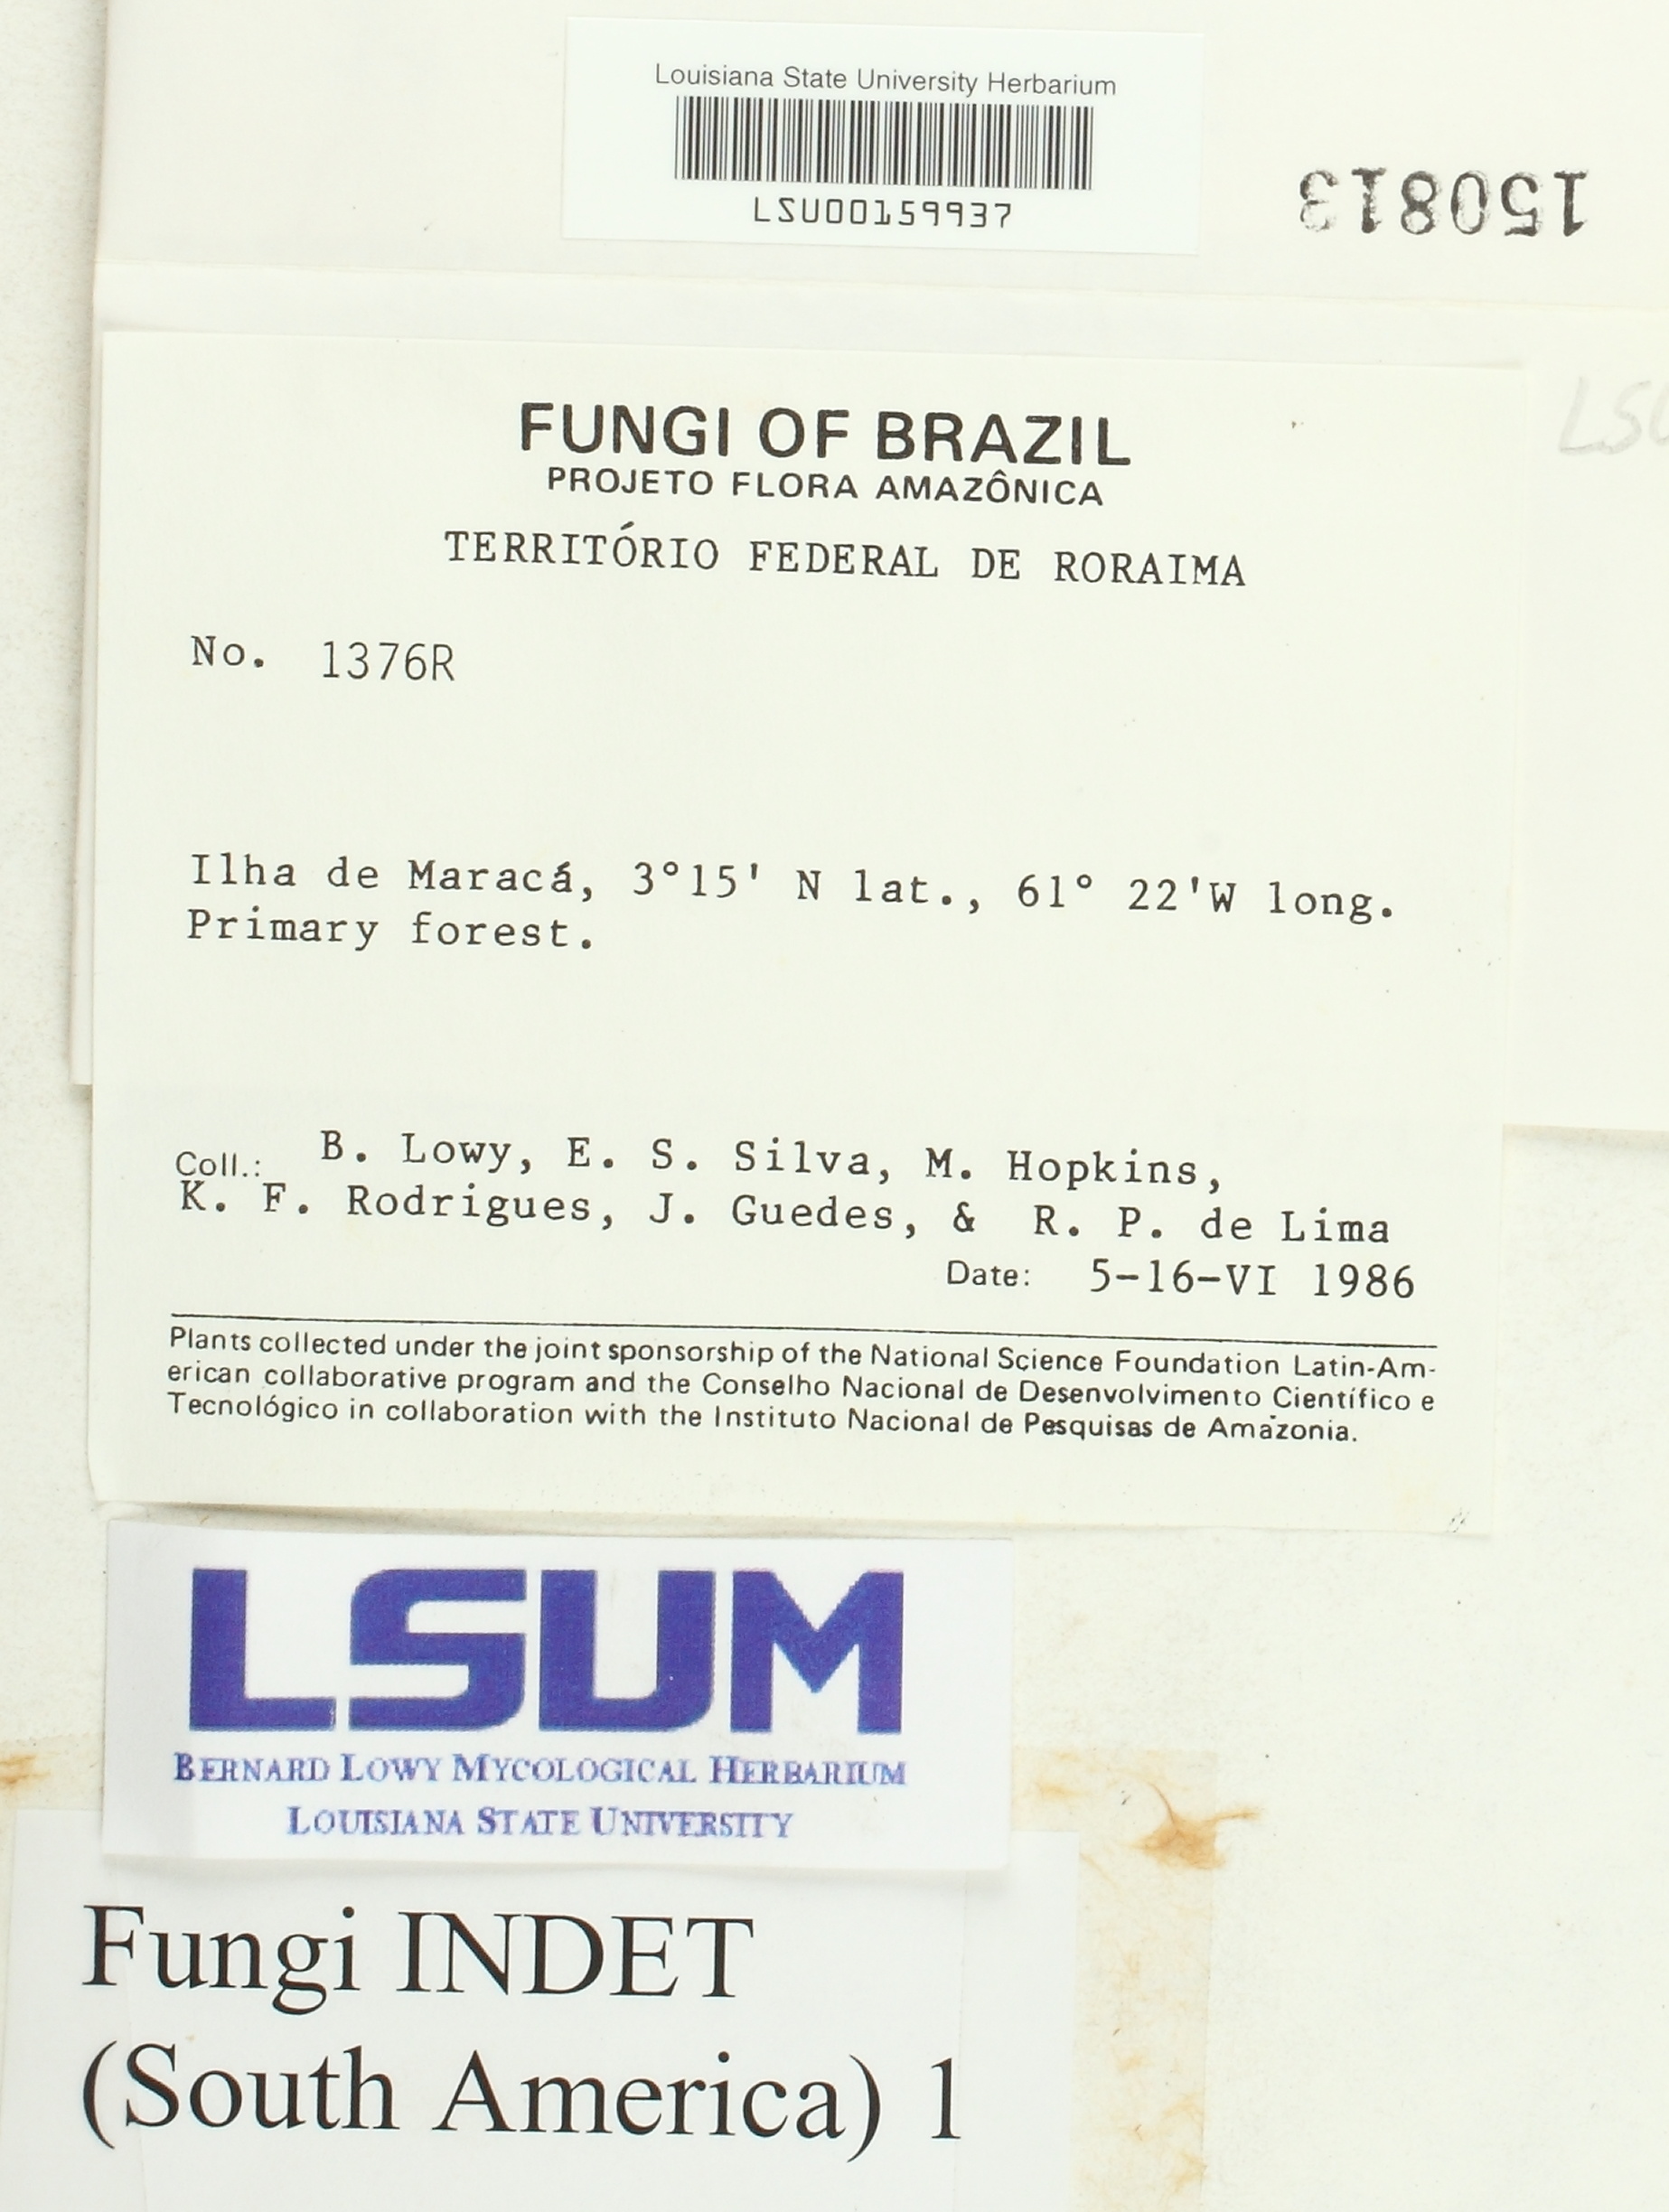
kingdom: Fungi
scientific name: Fungi
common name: Fungi
